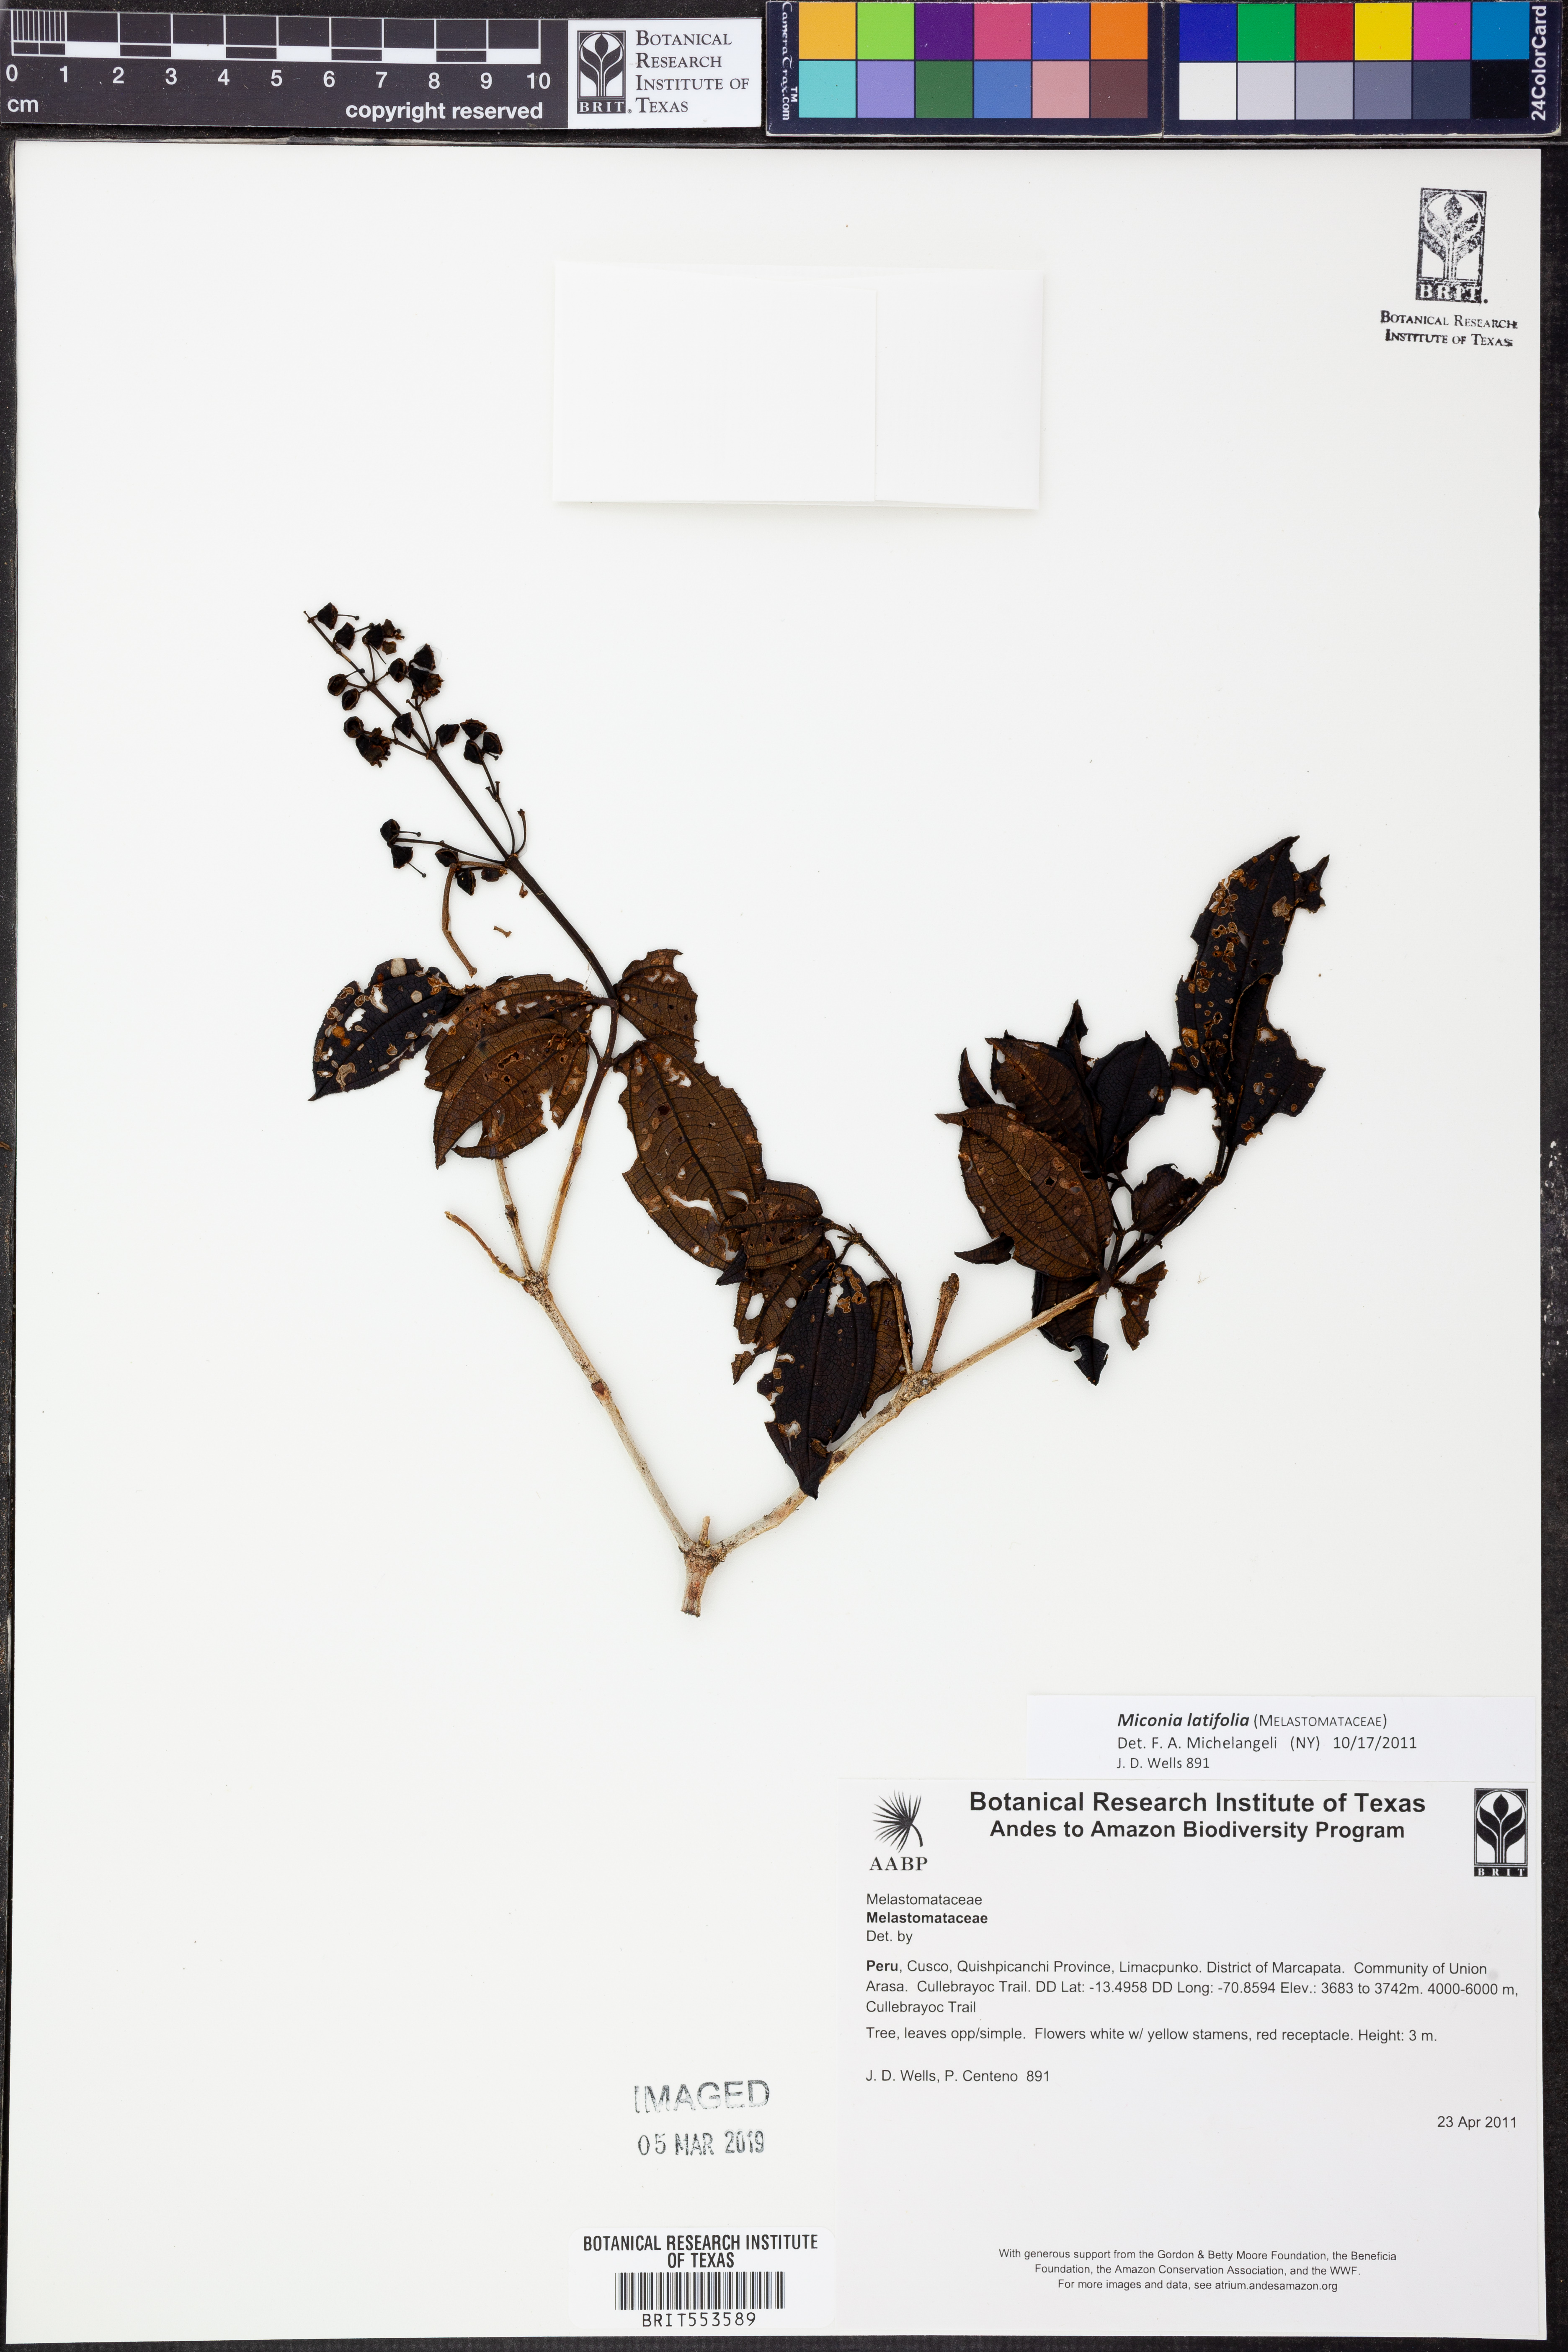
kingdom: Plantae
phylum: Tracheophyta
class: Magnoliopsida
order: Myrtales
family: Melastomataceae
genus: Miconia
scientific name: Miconia latifolia
